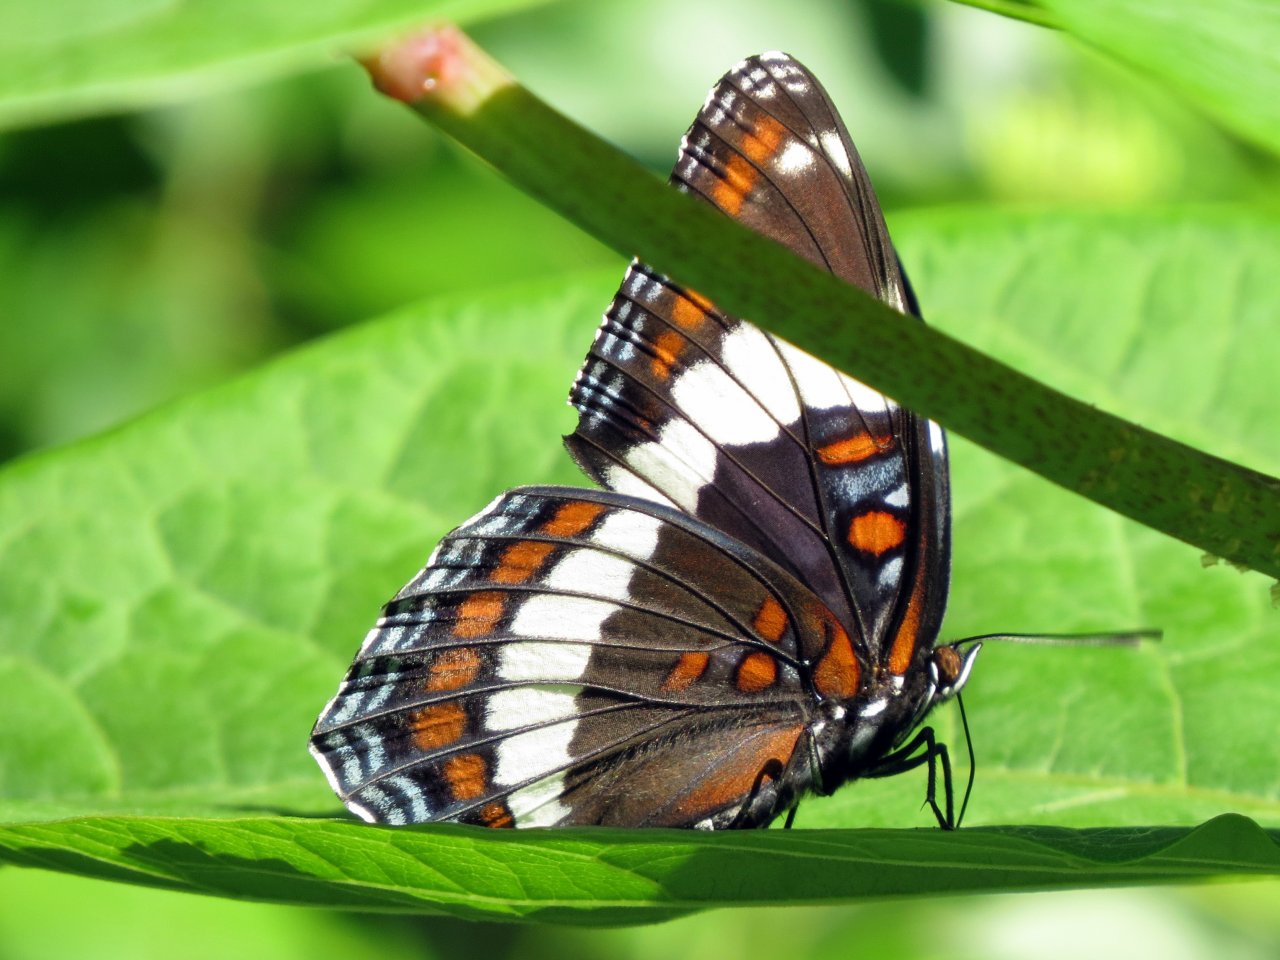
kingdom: Animalia
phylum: Arthropoda
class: Insecta
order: Lepidoptera
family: Nymphalidae
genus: Limenitis
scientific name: Limenitis arthemis
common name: Red-spotted Admiral
